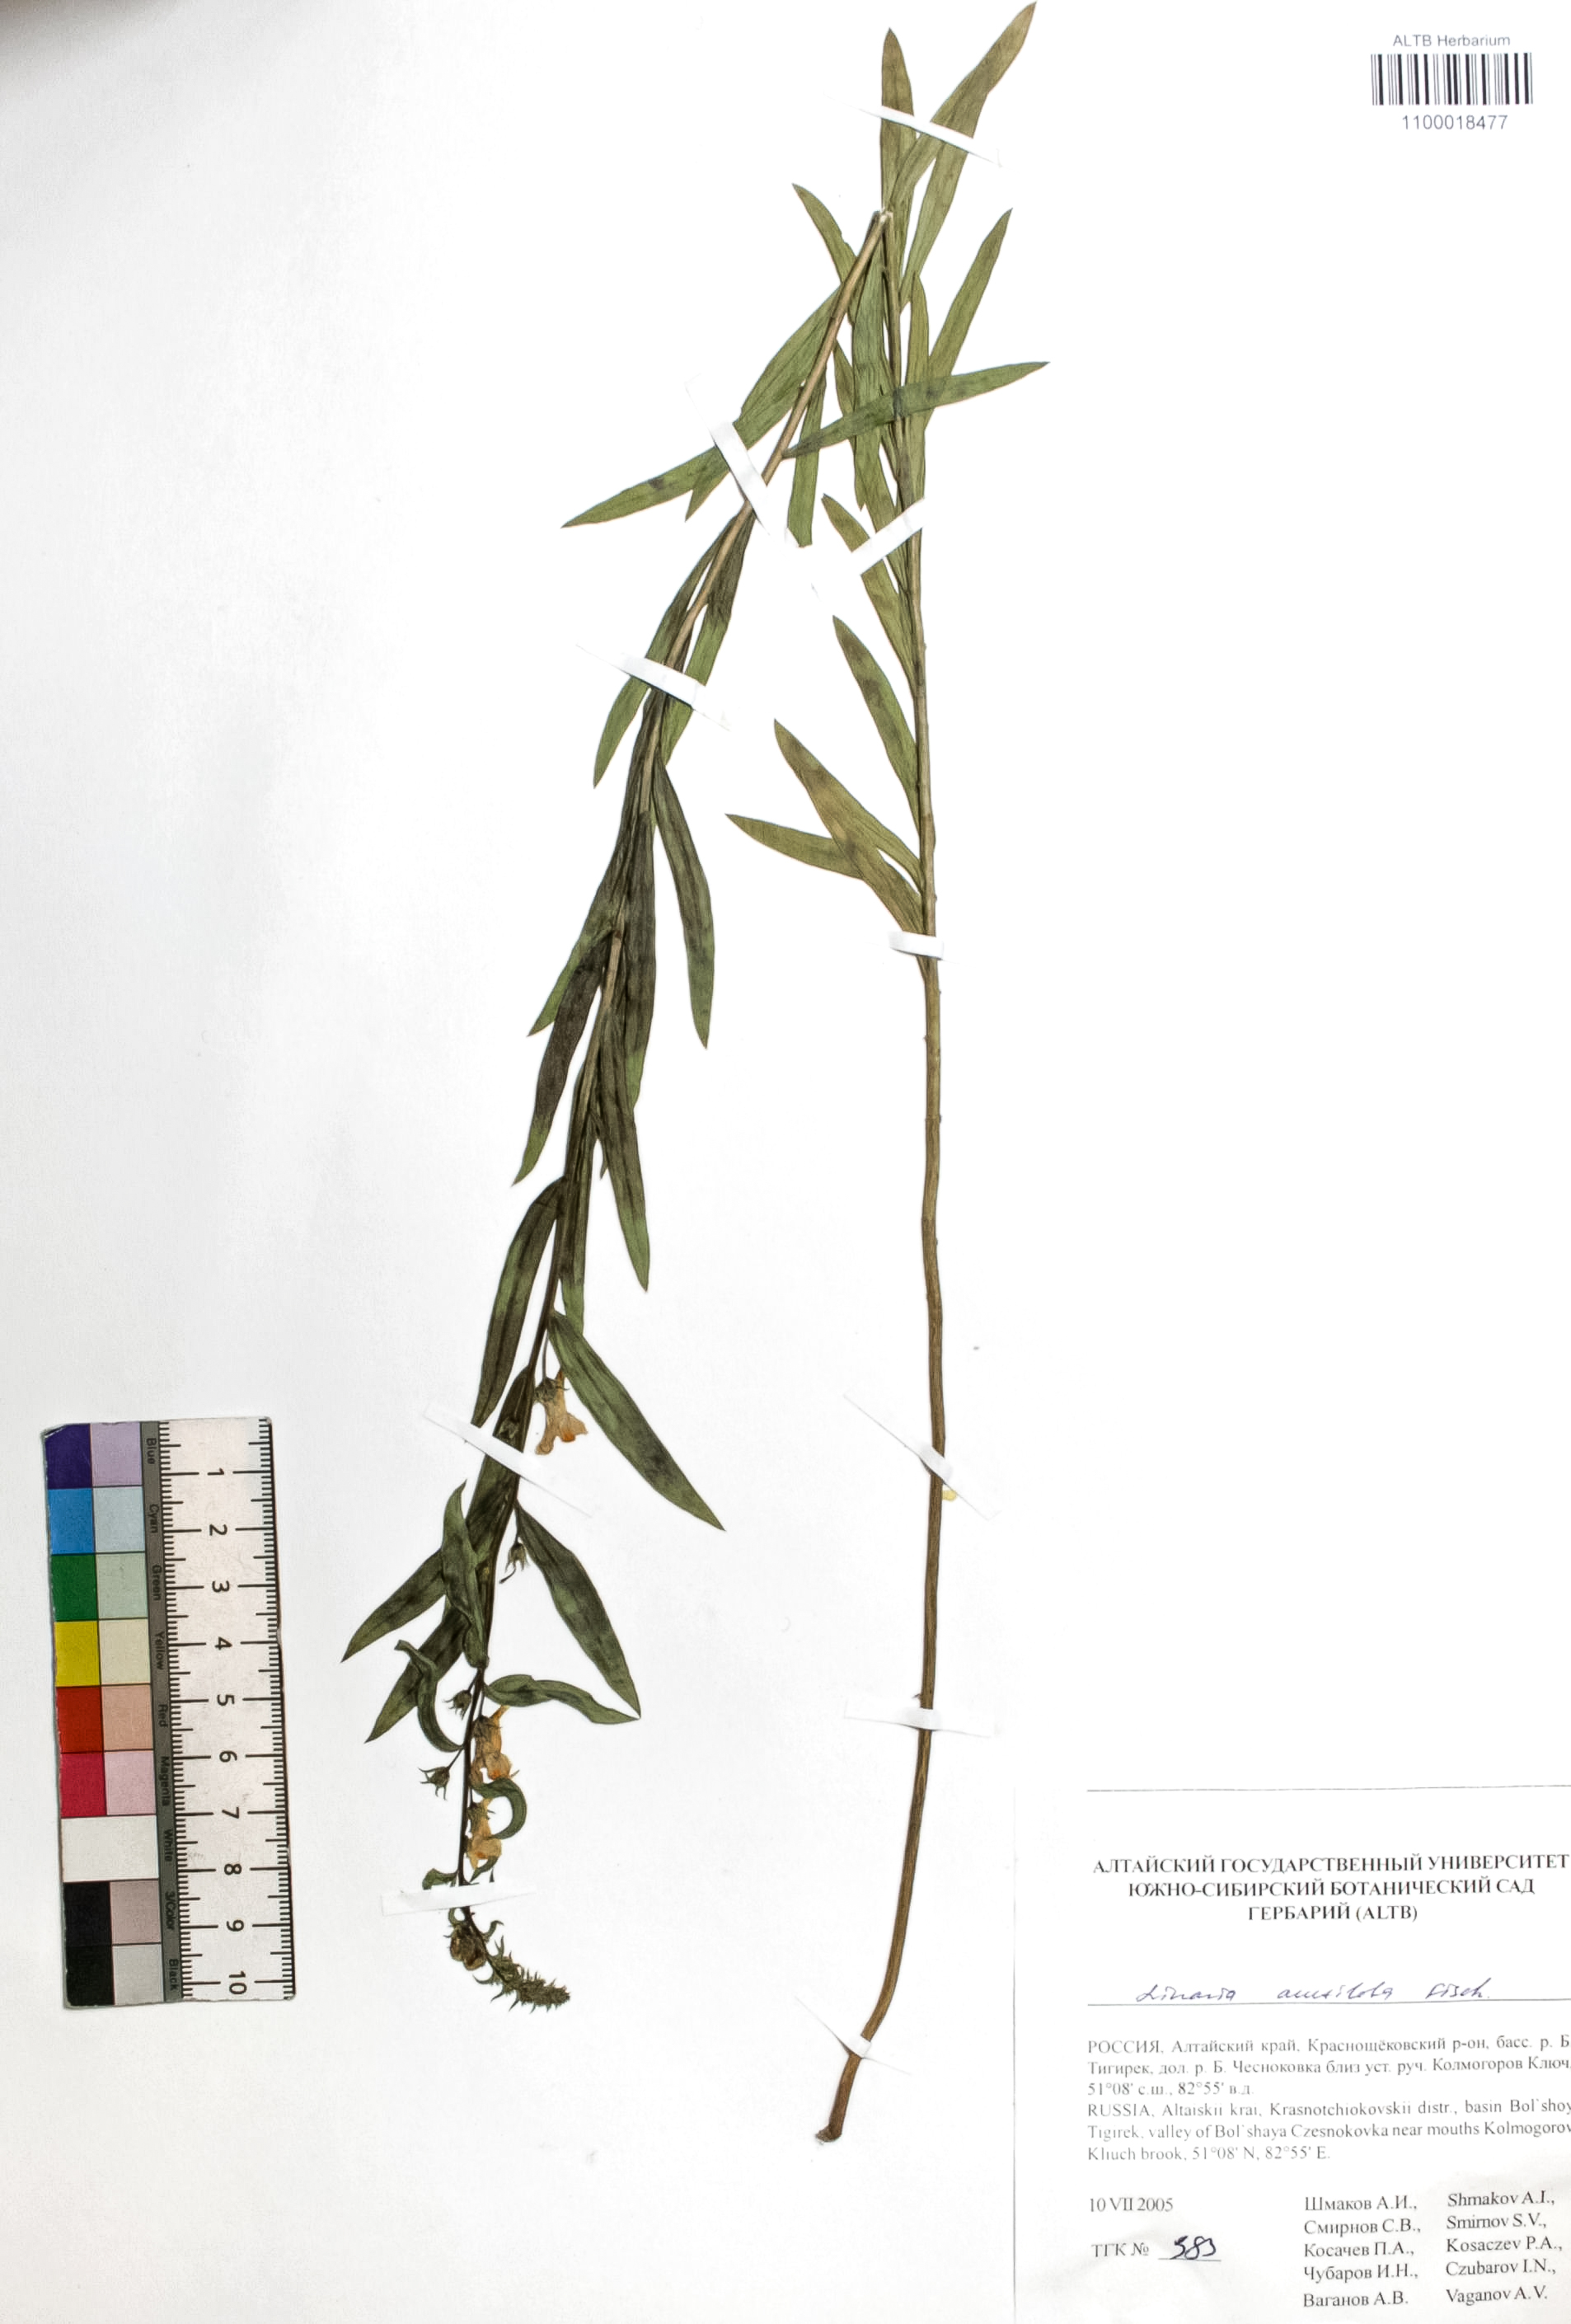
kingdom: Plantae
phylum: Tracheophyta
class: Magnoliopsida
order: Lamiales
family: Plantaginaceae
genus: Linaria
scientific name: Linaria acutiloba
